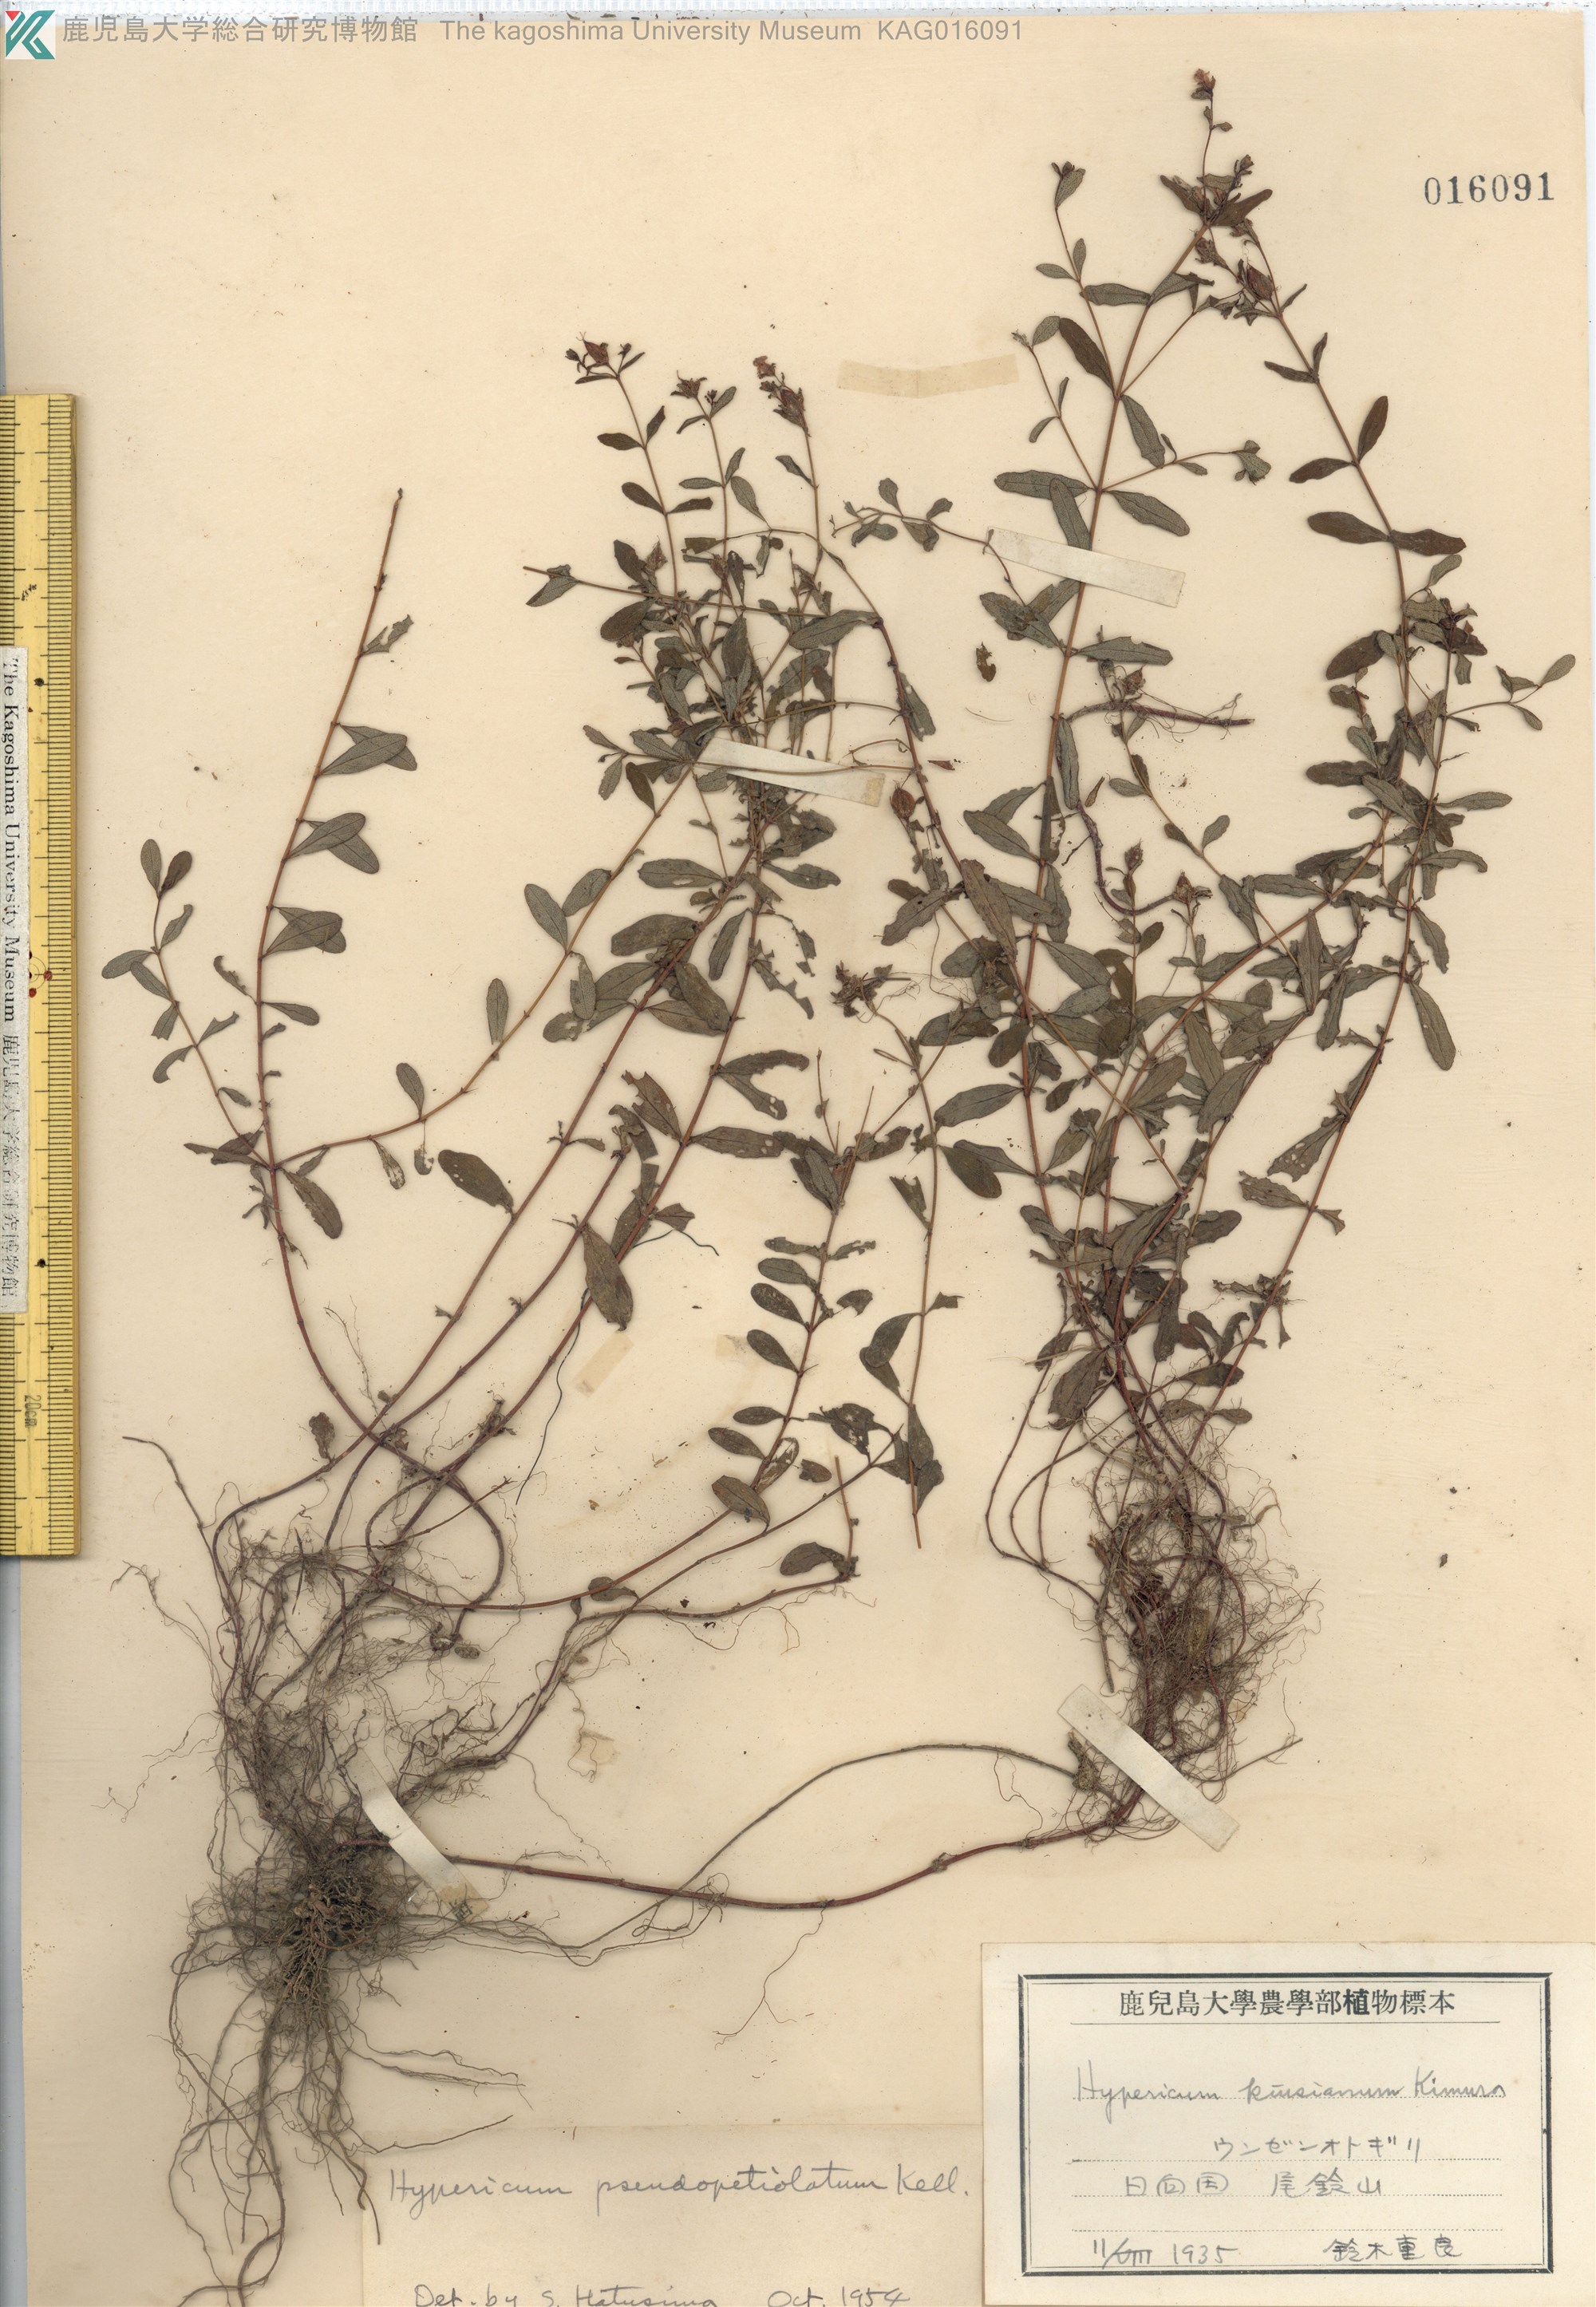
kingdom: Plantae
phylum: Tracheophyta
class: Magnoliopsida
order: Malpighiales
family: Hypericaceae
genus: Hypericum
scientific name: Hypericum pseudopetiolatum
